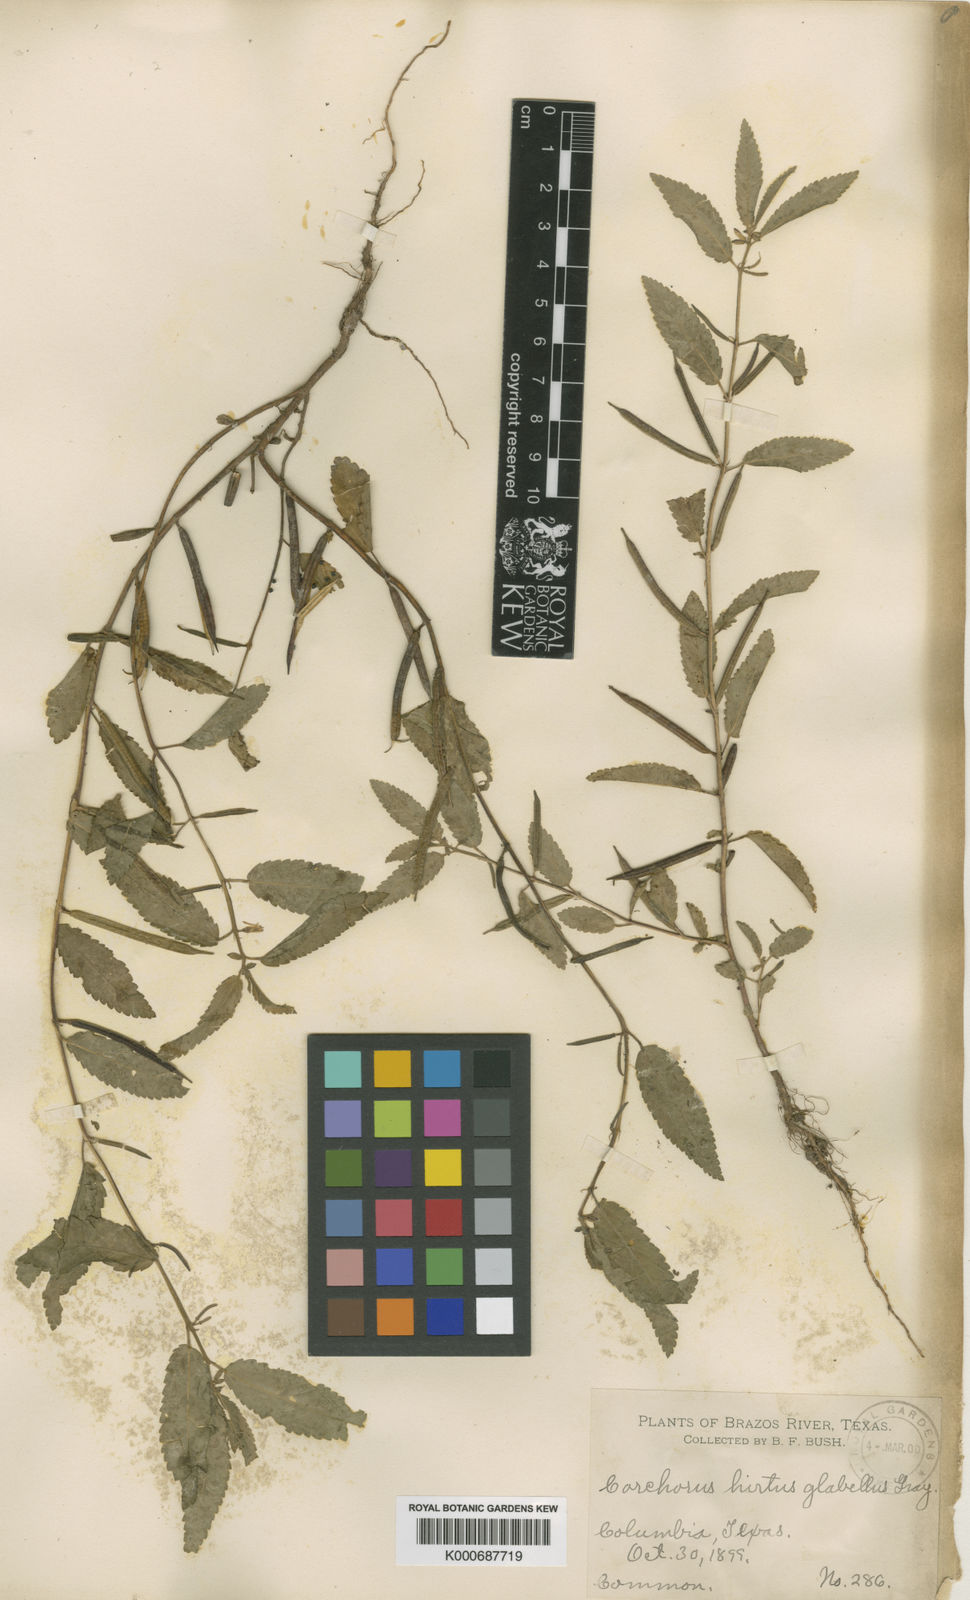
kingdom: Plantae
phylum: Tracheophyta
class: Magnoliopsida
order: Malvales
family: Malvaceae
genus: Corchorus
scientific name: Corchorus hirtus
